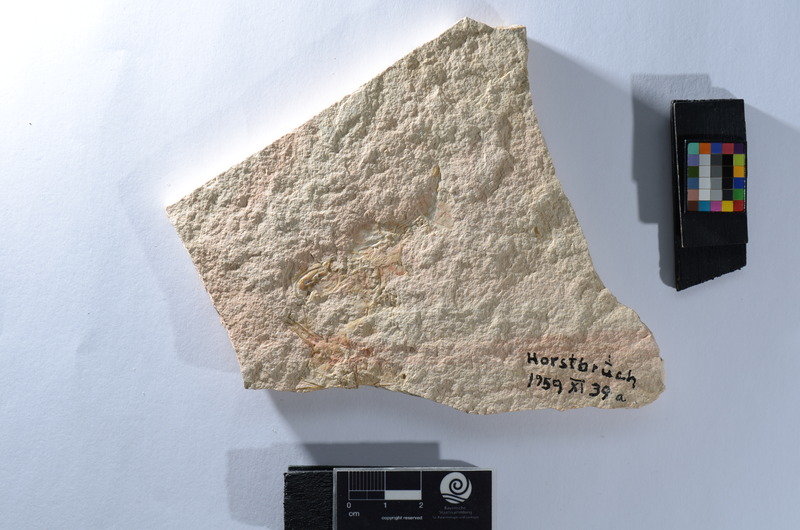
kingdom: Animalia
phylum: Chordata
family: Aspidorhynchidae
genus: Aspidorhynchus
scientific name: Aspidorhynchus
